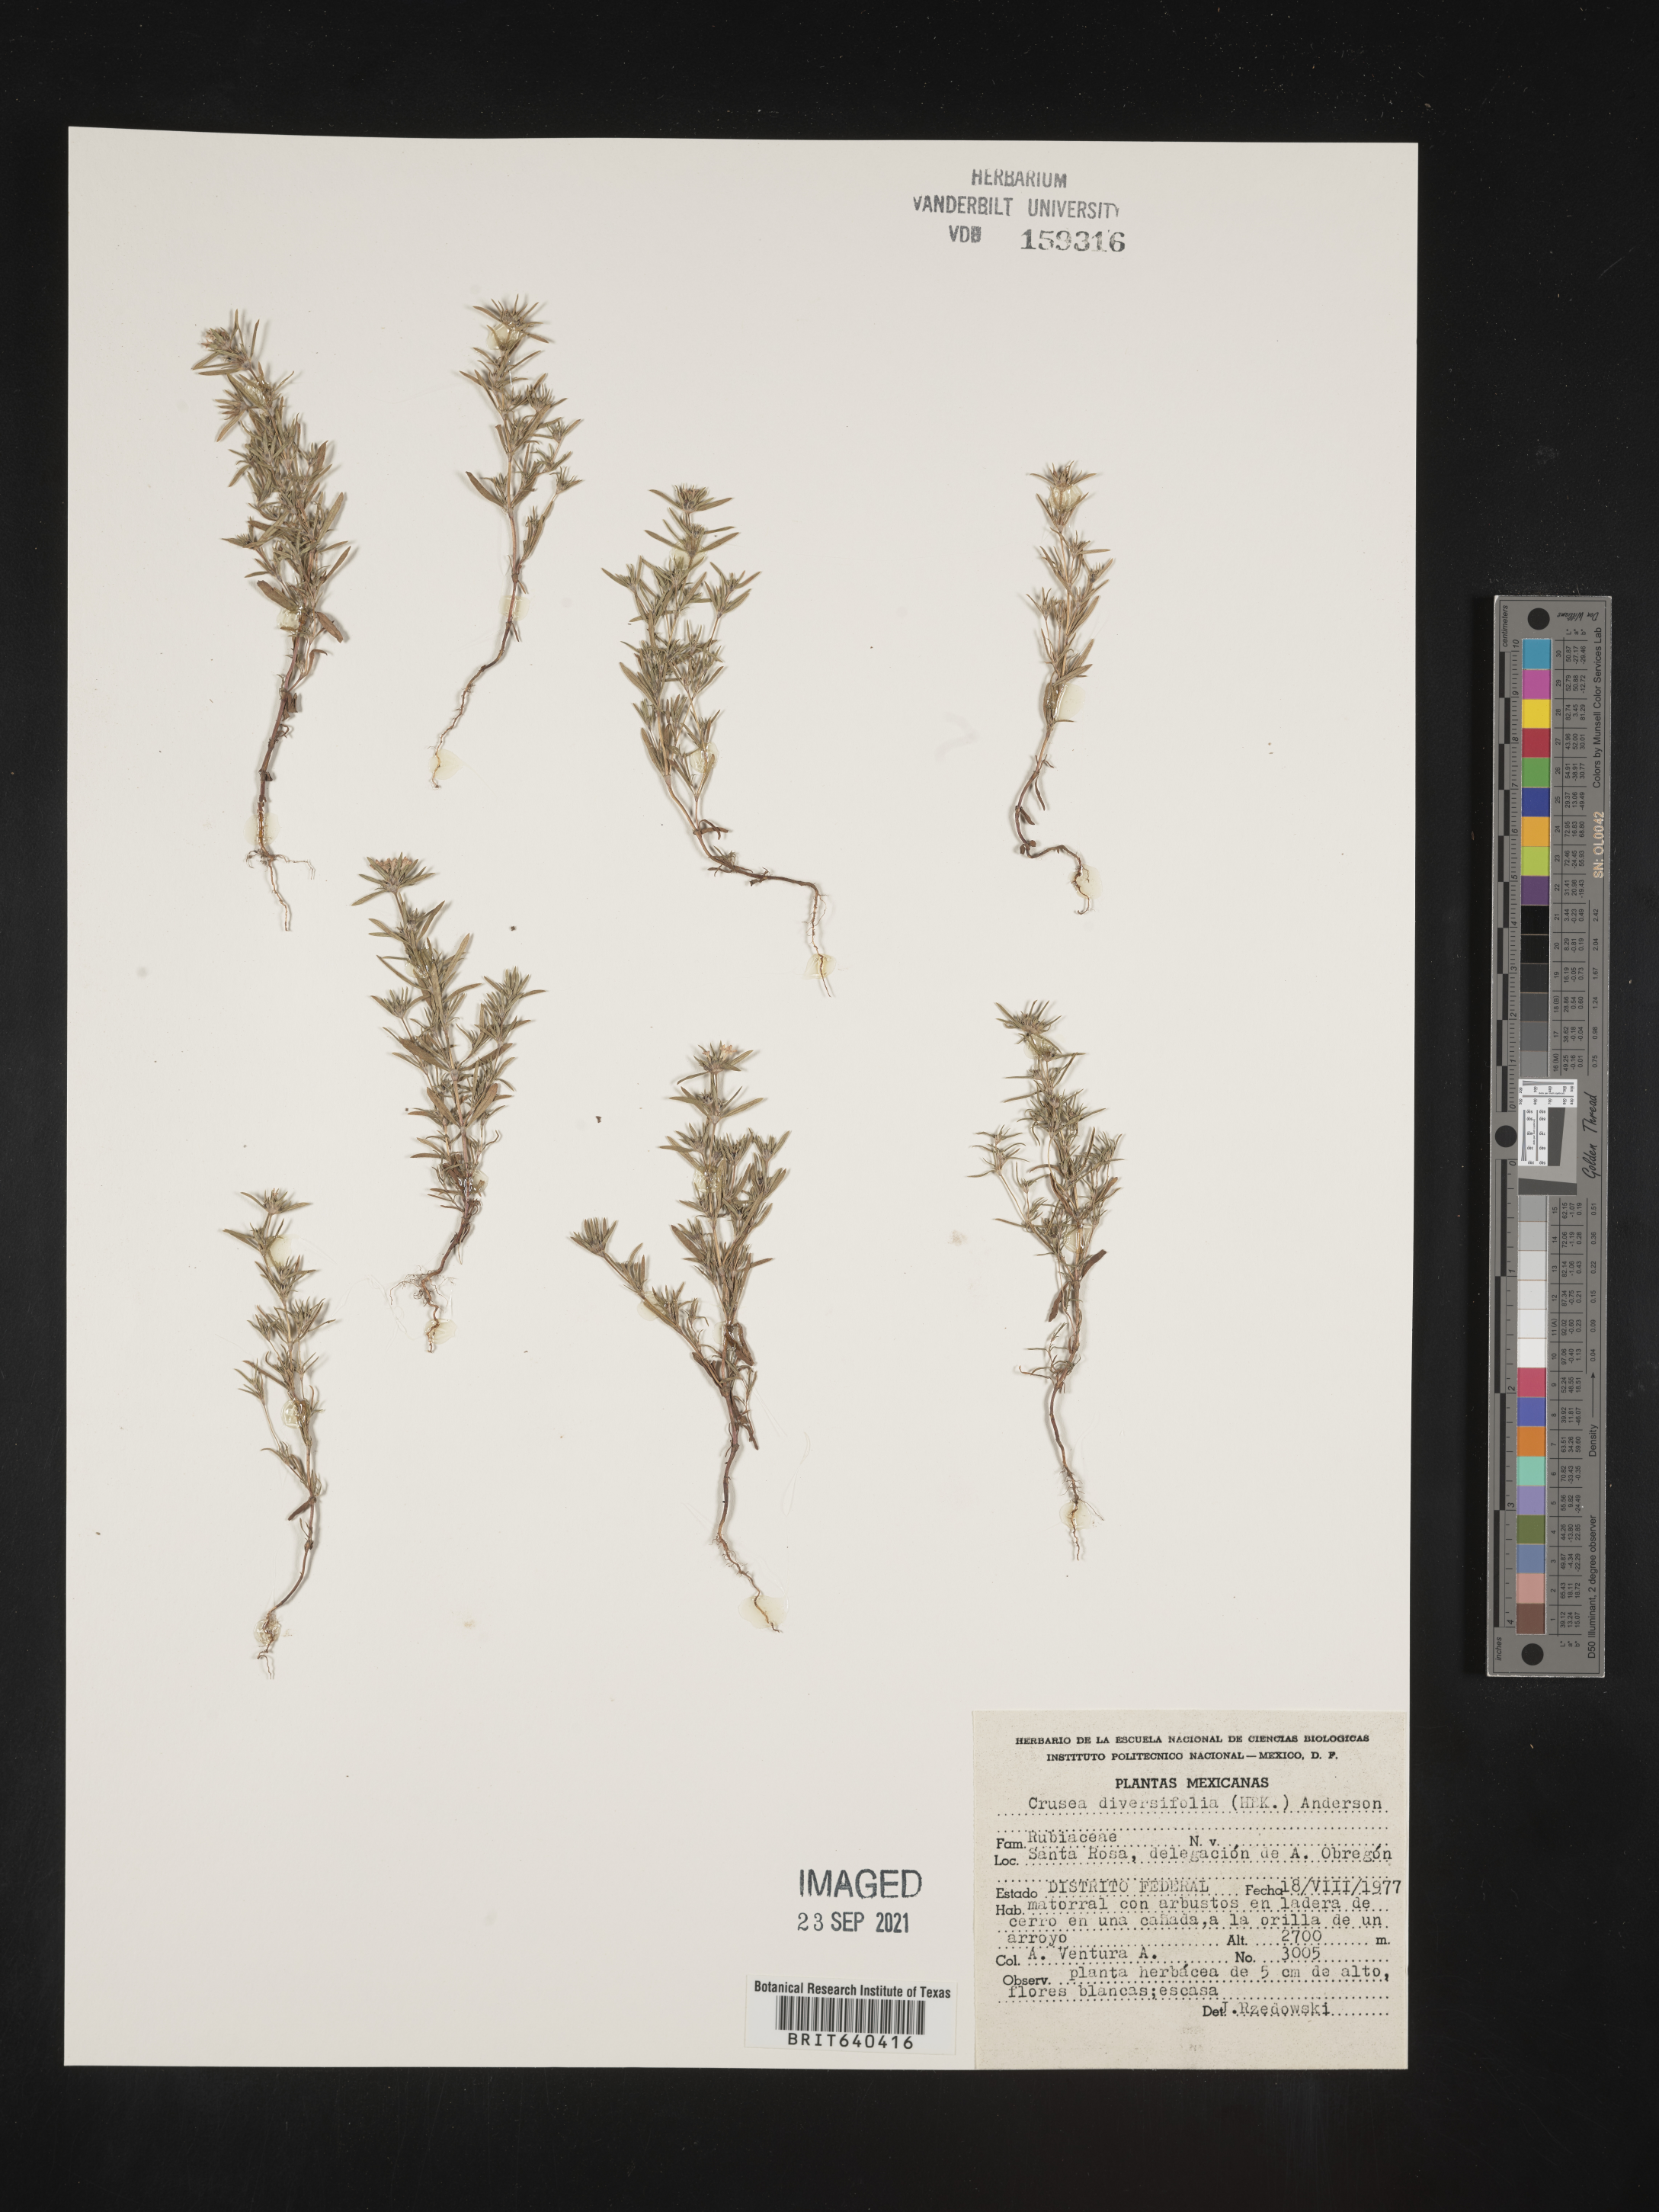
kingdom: Plantae
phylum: Tracheophyta
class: Magnoliopsida
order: Gentianales
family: Rubiaceae
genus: Crusea
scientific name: Crusea
